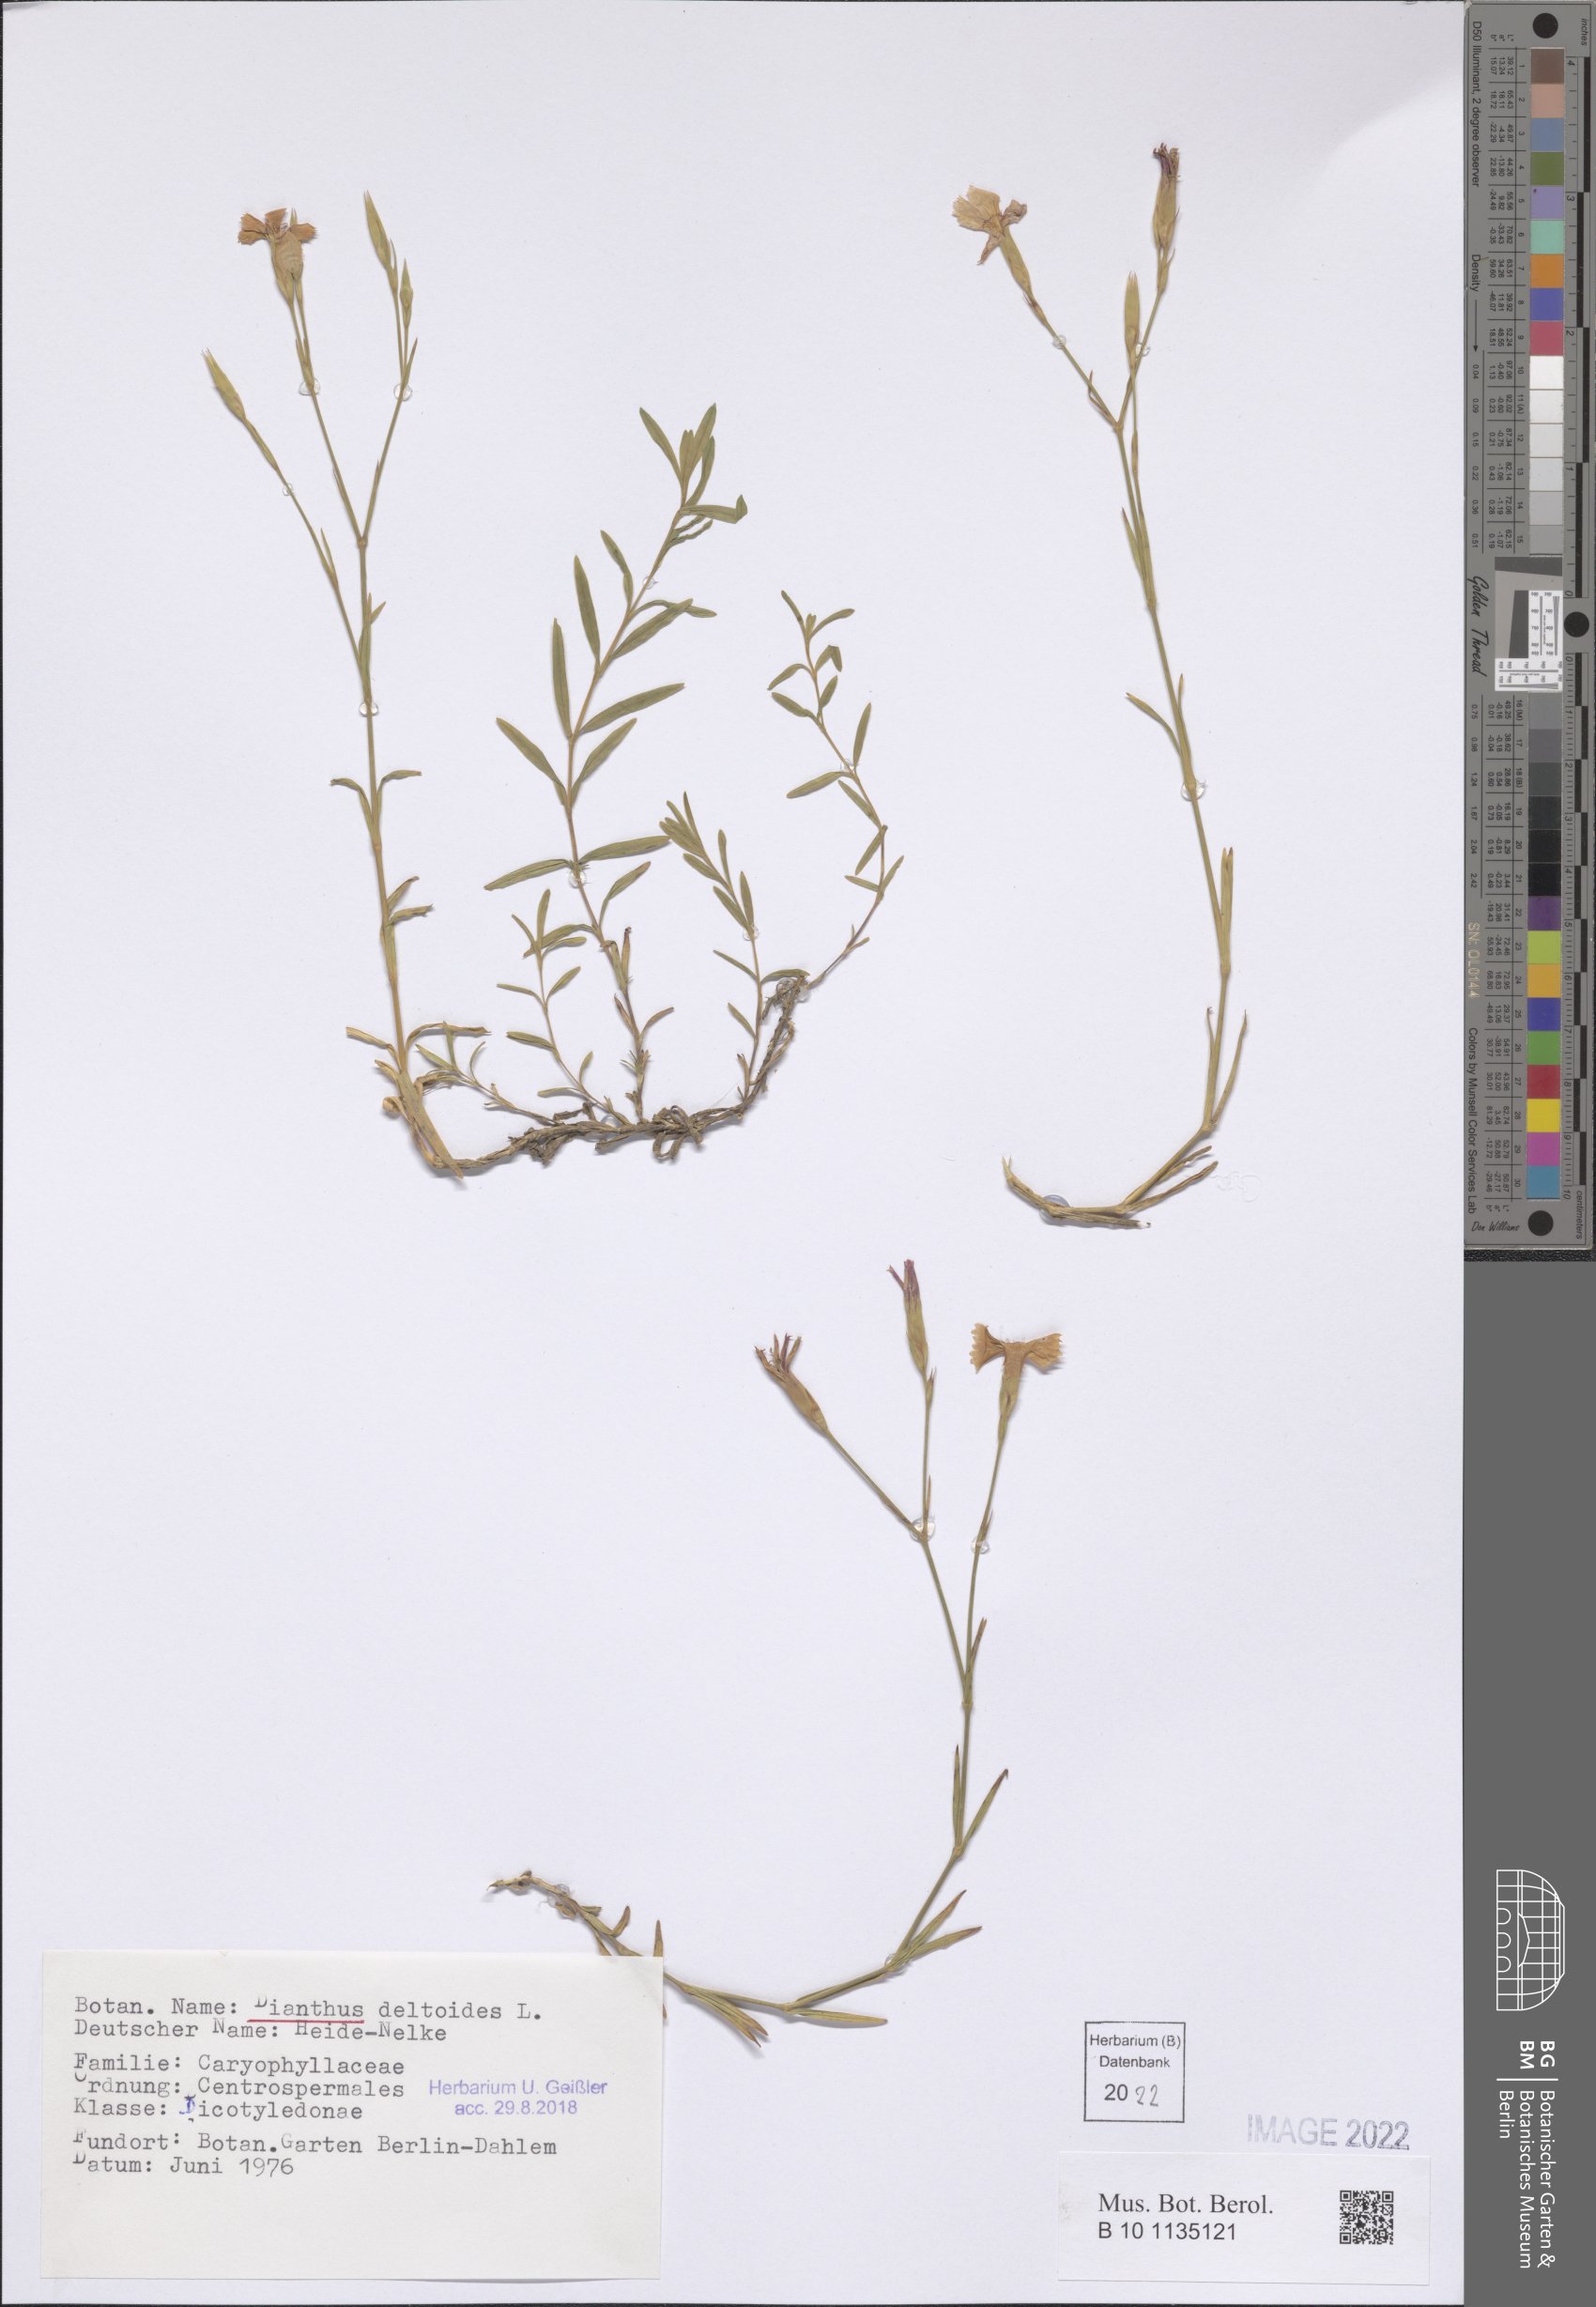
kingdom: Plantae
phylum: Tracheophyta
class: Magnoliopsida
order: Caryophyllales
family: Caryophyllaceae
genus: Dianthus
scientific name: Dianthus deltoides
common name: Maiden pink
